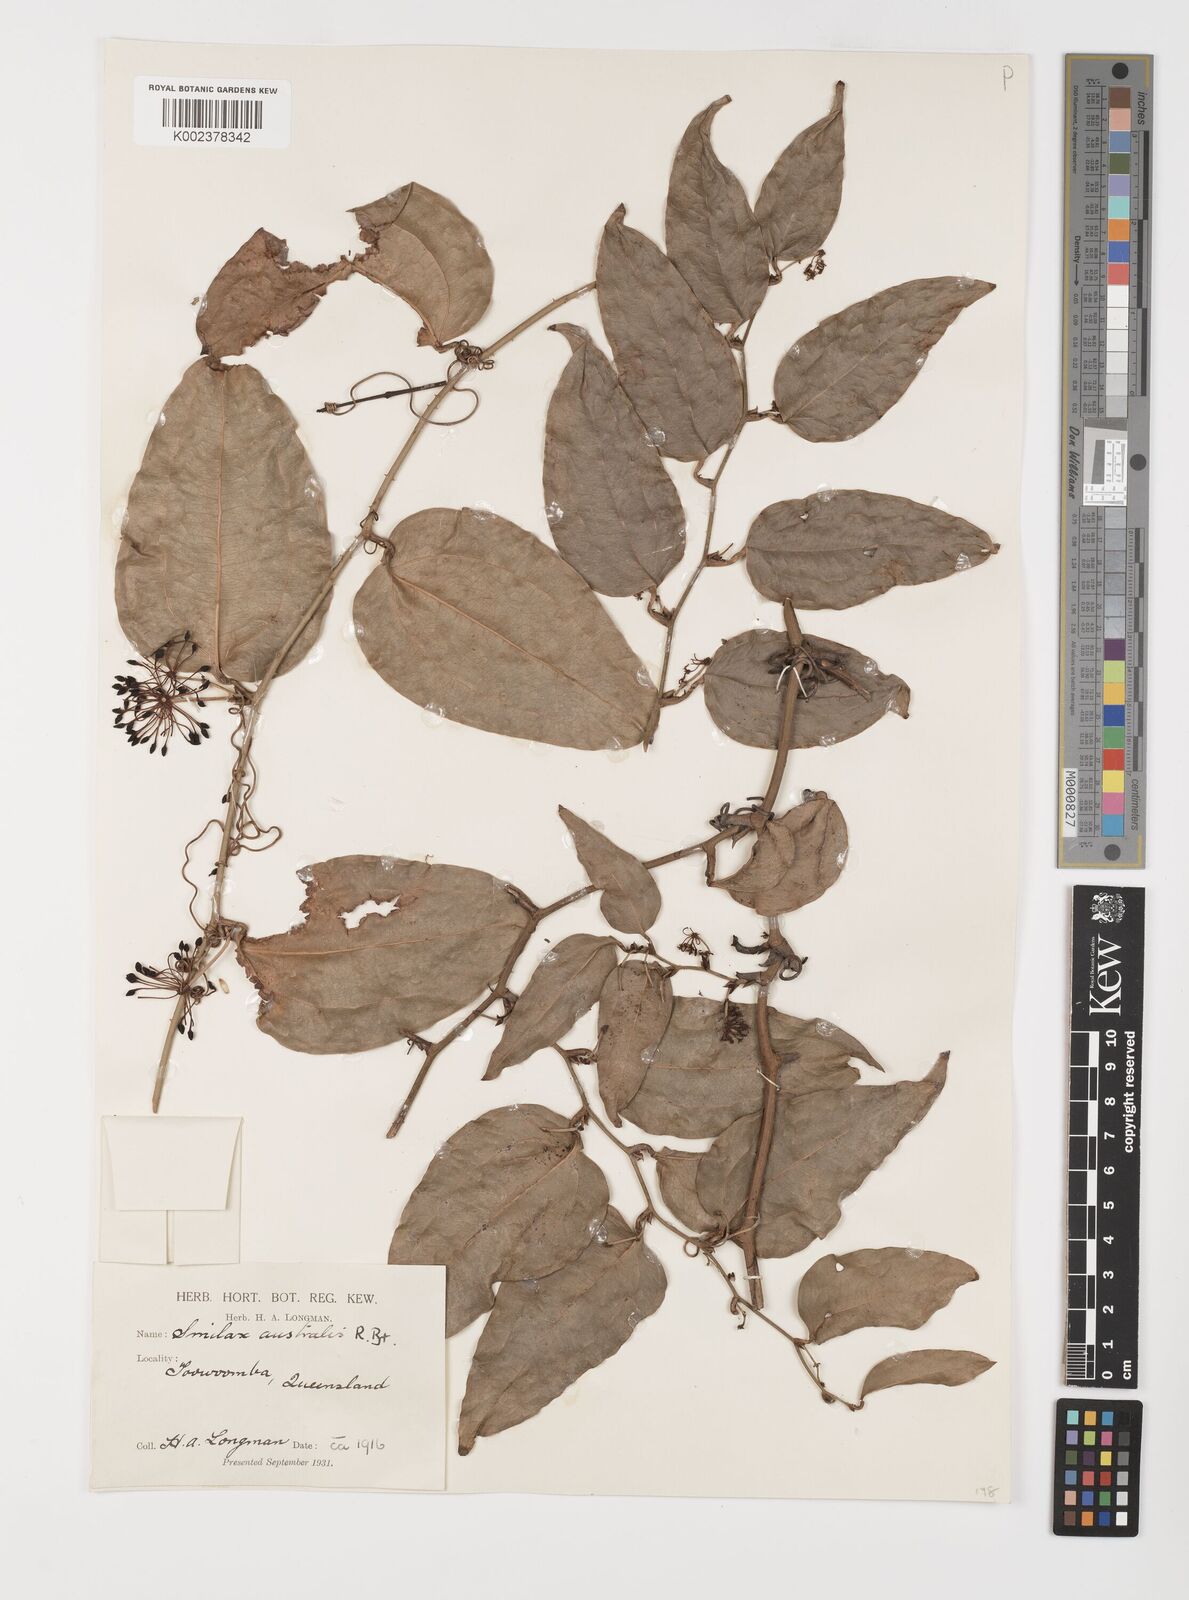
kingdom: Plantae
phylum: Tracheophyta
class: Liliopsida
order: Liliales
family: Smilacaceae
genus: Smilax
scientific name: Smilax australis
